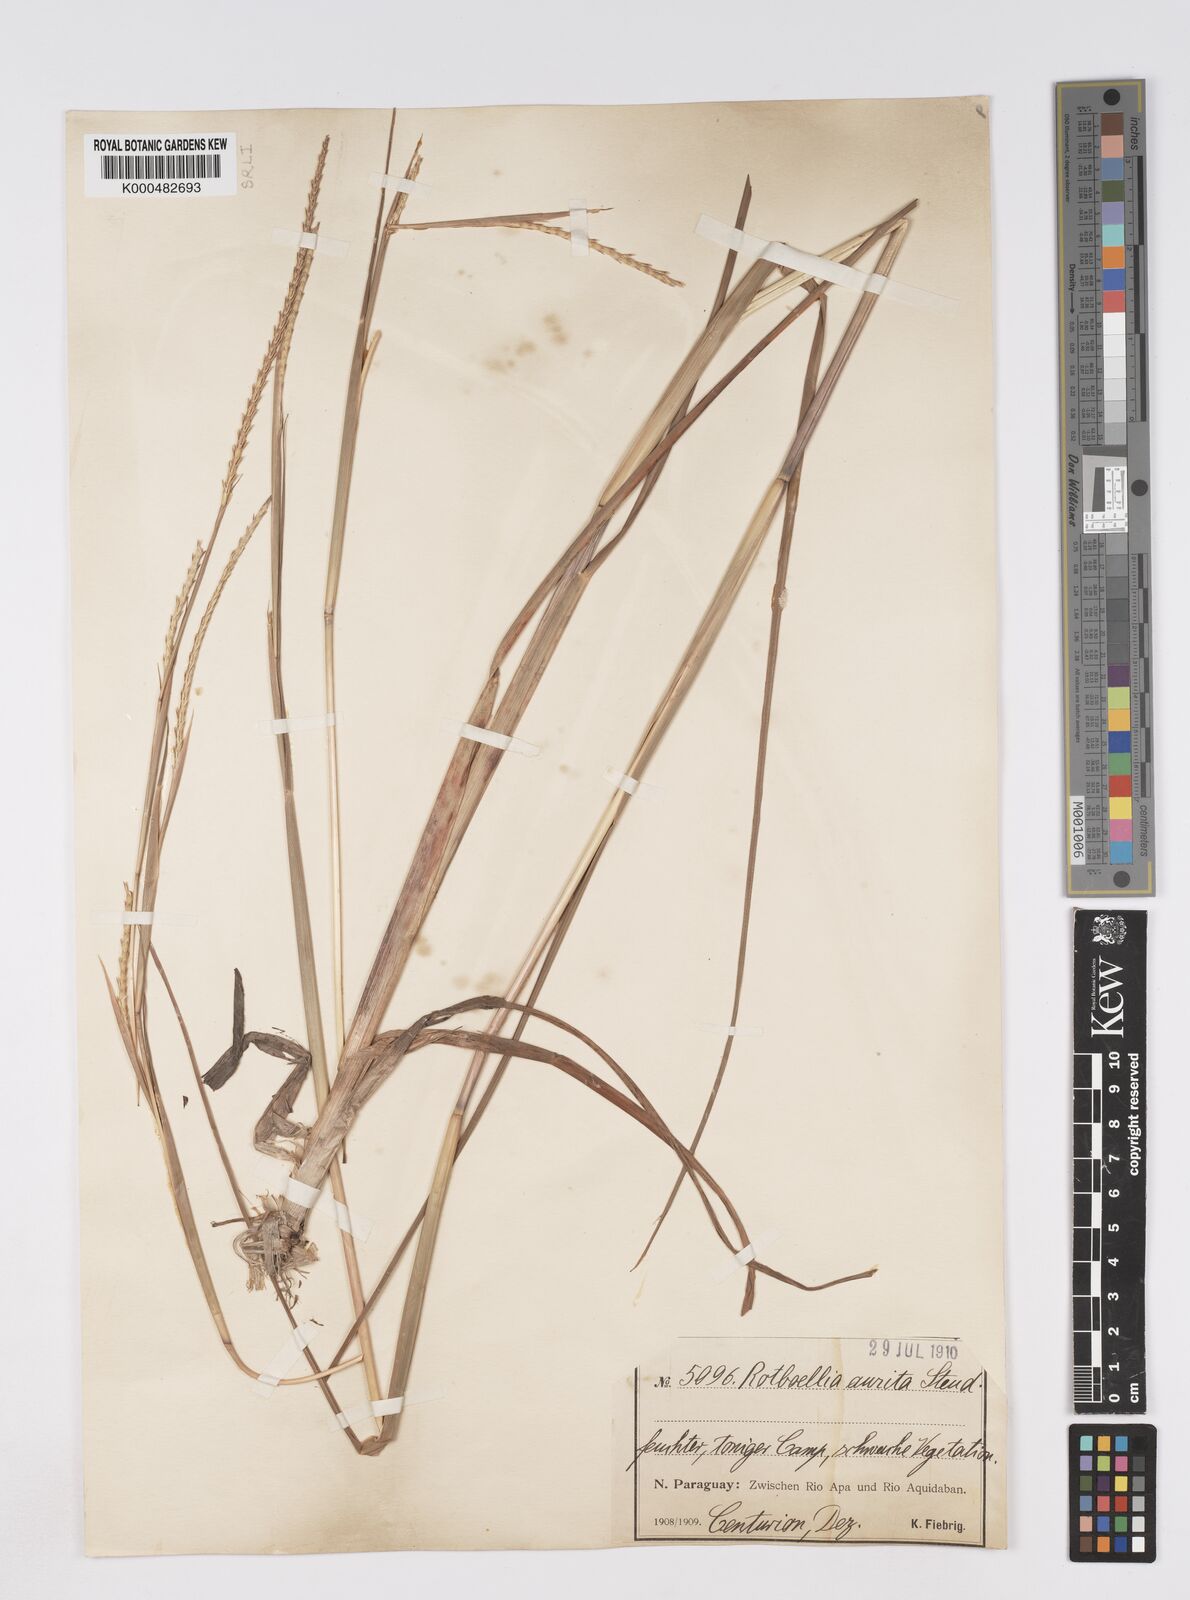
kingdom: Plantae
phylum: Tracheophyta
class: Liliopsida
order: Poales
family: Poaceae
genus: Rottboellia
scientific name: Rottboellia aurita
